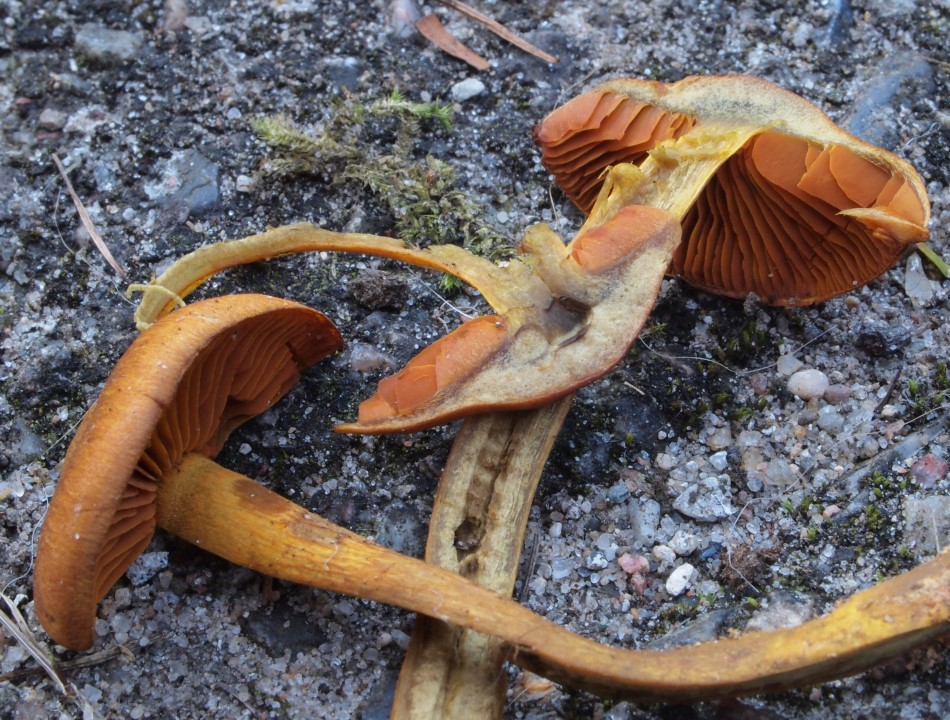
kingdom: Fungi
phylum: Basidiomycota
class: Agaricomycetes
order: Agaricales
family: Cortinariaceae
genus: Cortinarius
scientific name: Cortinarius malicorius
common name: grønkødet slørhat
